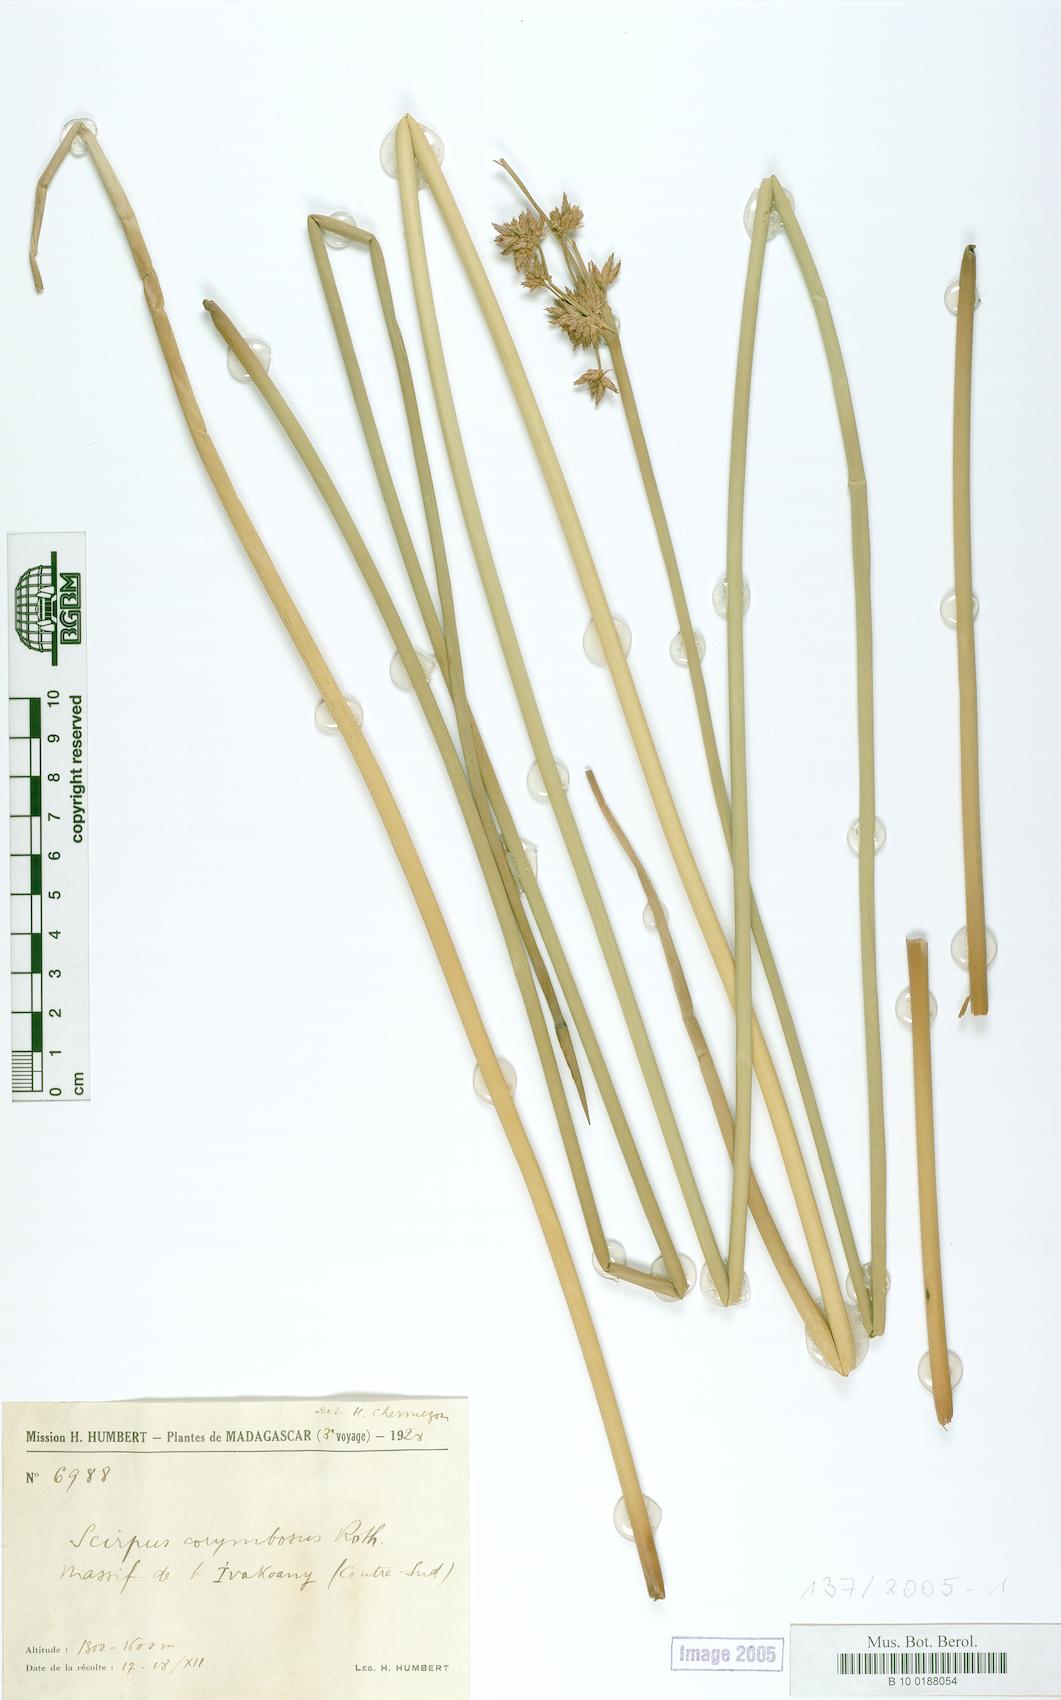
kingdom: Plantae
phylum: Tracheophyta
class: Liliopsida
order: Poales
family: Cyperaceae
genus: Scirpus
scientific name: Scirpus corymbosus
